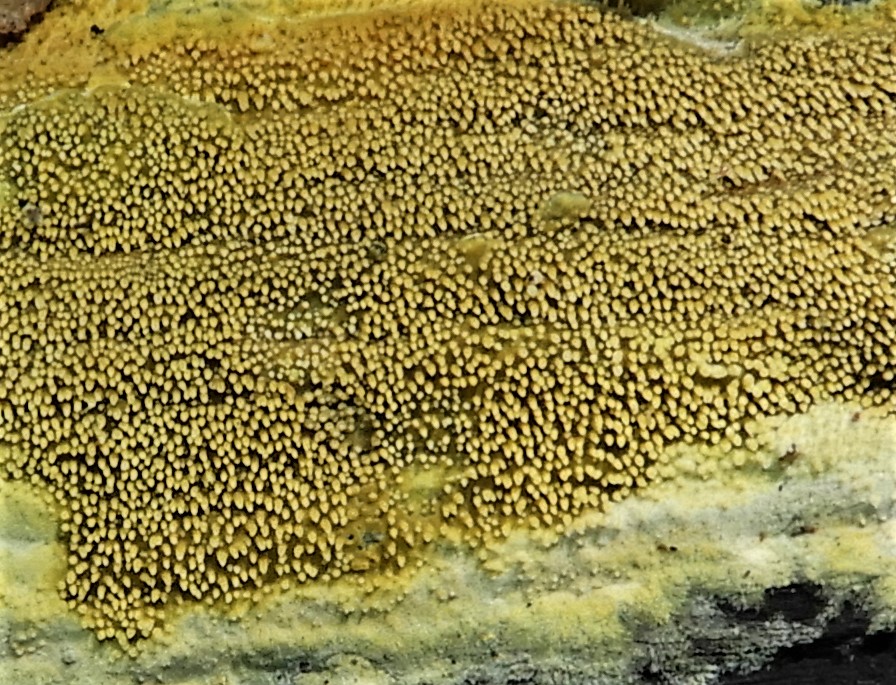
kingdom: Fungi
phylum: Basidiomycota
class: Agaricomycetes
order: Polyporales
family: Meruliaceae
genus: Mycoacia
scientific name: Mycoacia
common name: vokspig
